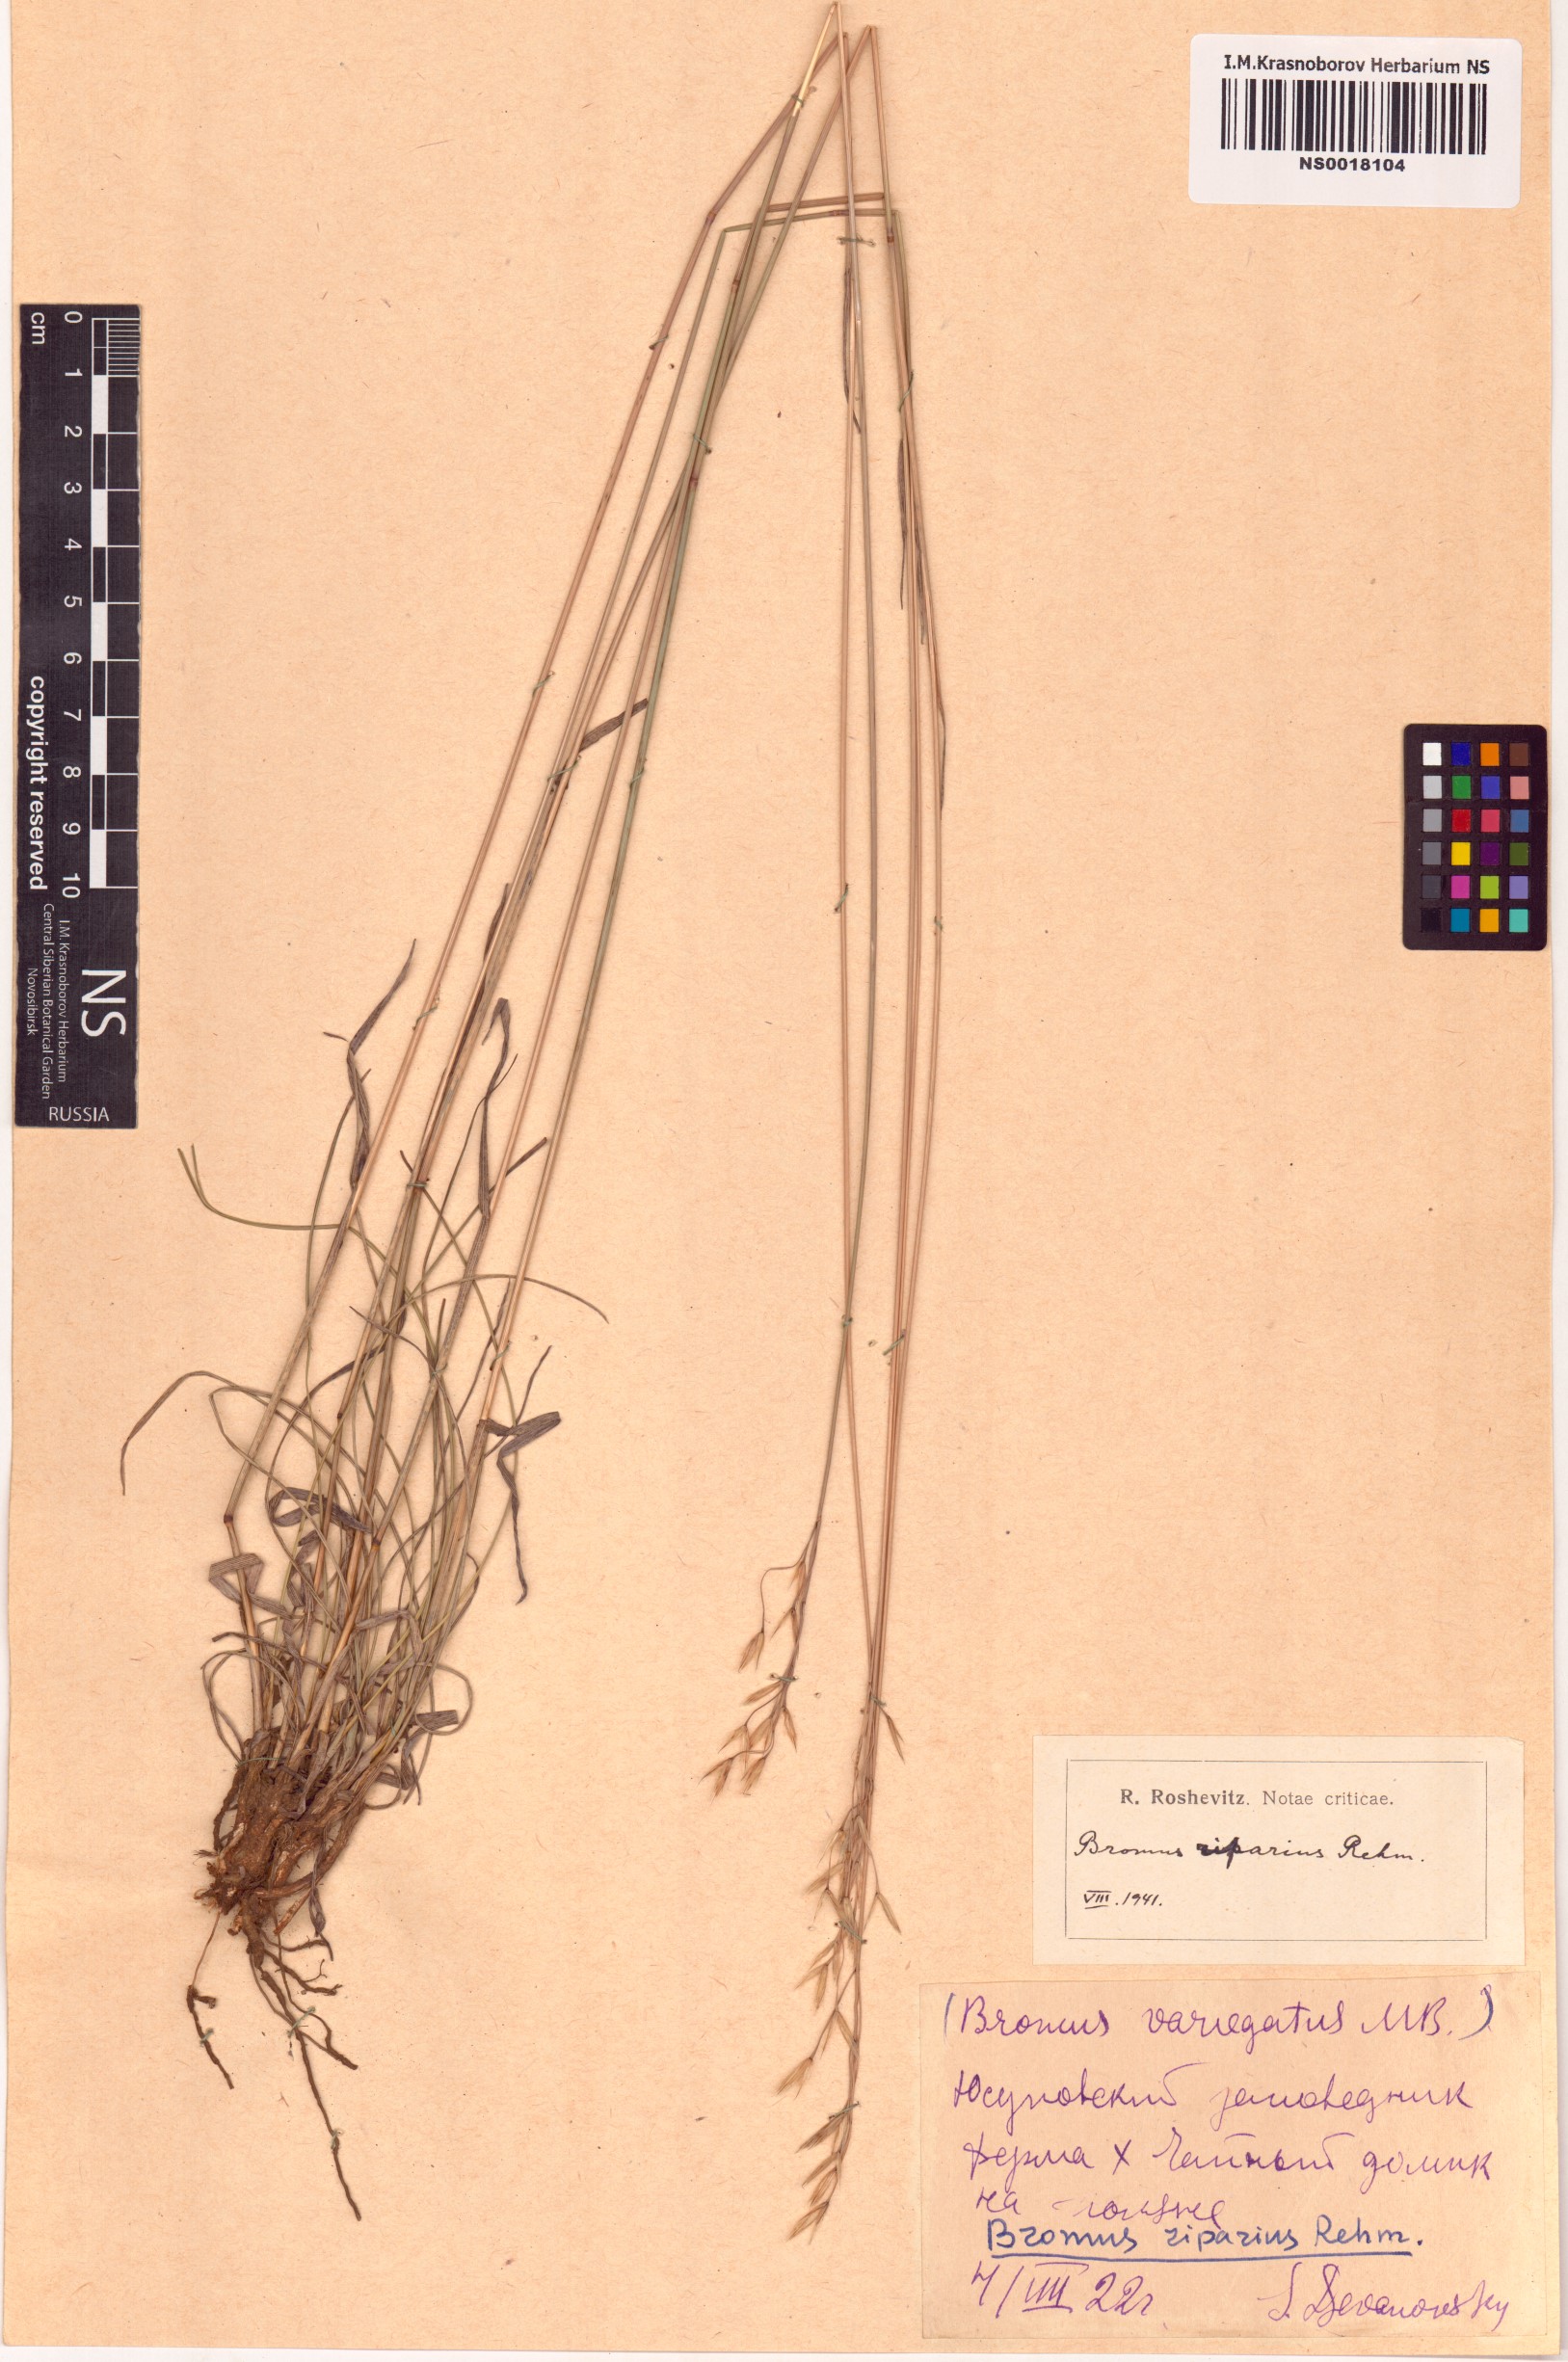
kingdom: Plantae
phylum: Tracheophyta
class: Liliopsida
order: Poales
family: Poaceae
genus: Bromus
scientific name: Bromus riparius
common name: Meadow brome
